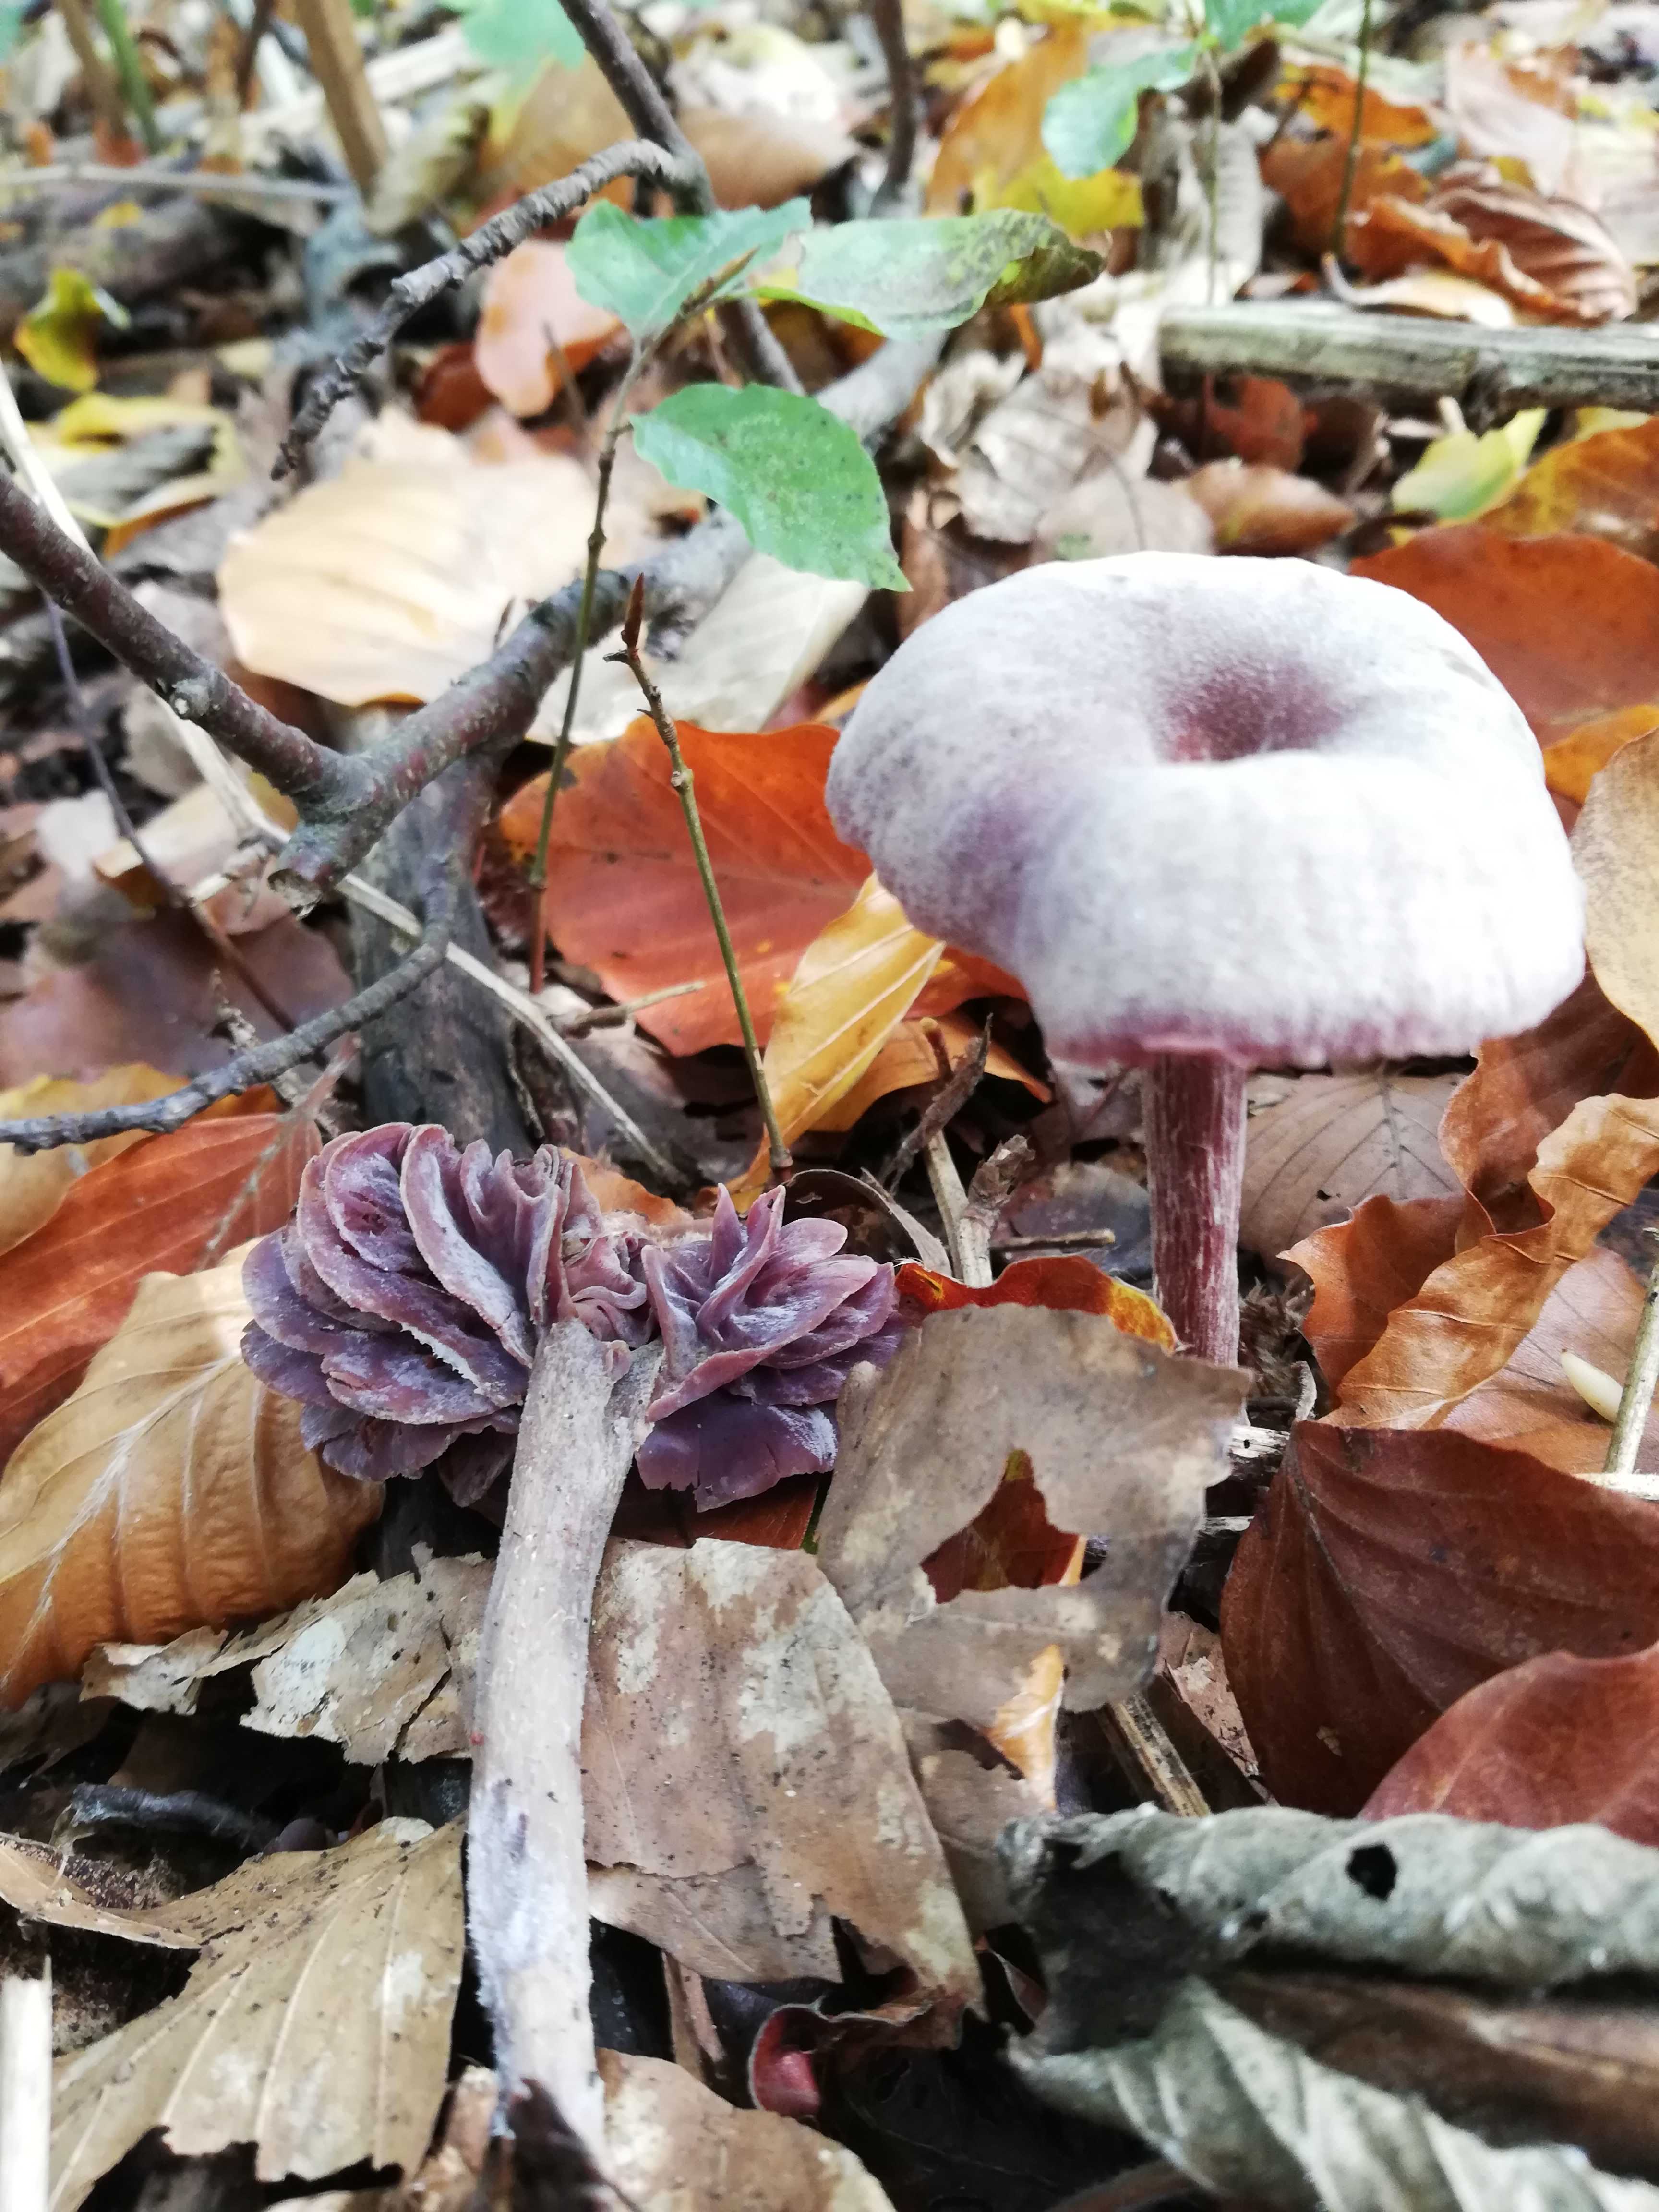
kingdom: Fungi
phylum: Basidiomycota
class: Agaricomycetes
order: Agaricales
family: Hydnangiaceae
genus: Laccaria
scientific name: Laccaria amethystina
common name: violet ametysthat
